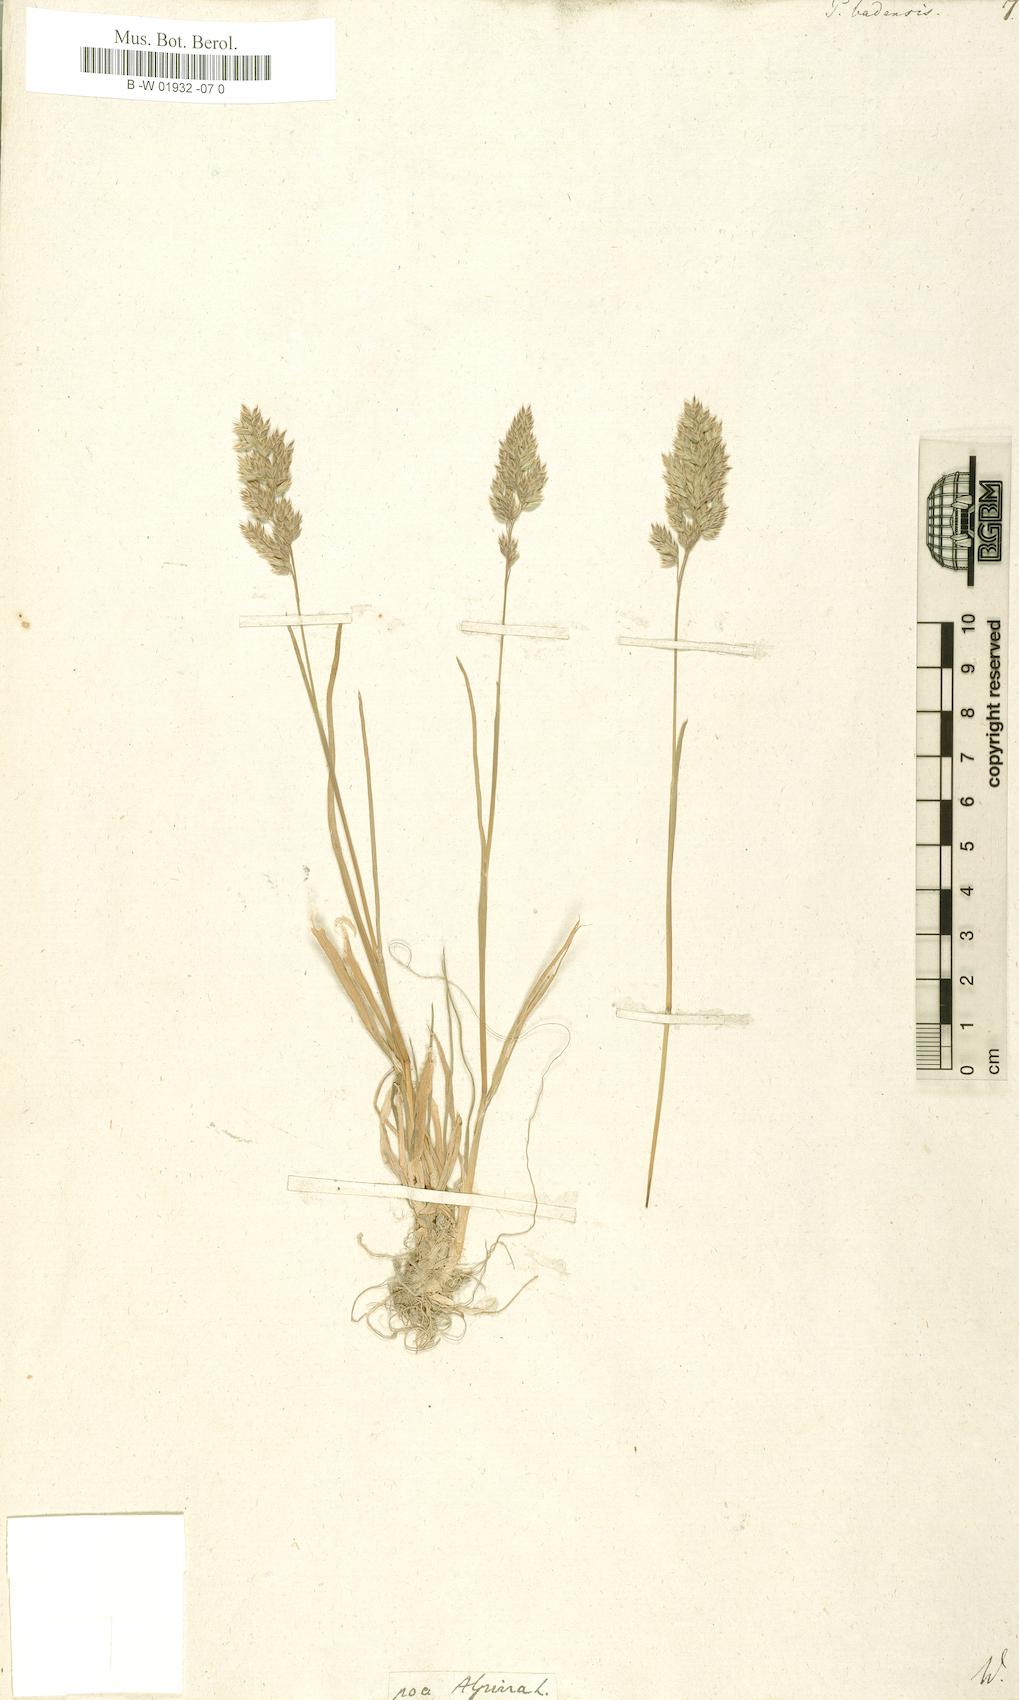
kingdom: Plantae
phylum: Tracheophyta
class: Liliopsida
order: Poales
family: Poaceae
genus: Poa
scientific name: Poa badensis
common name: Baden's bluegrass
